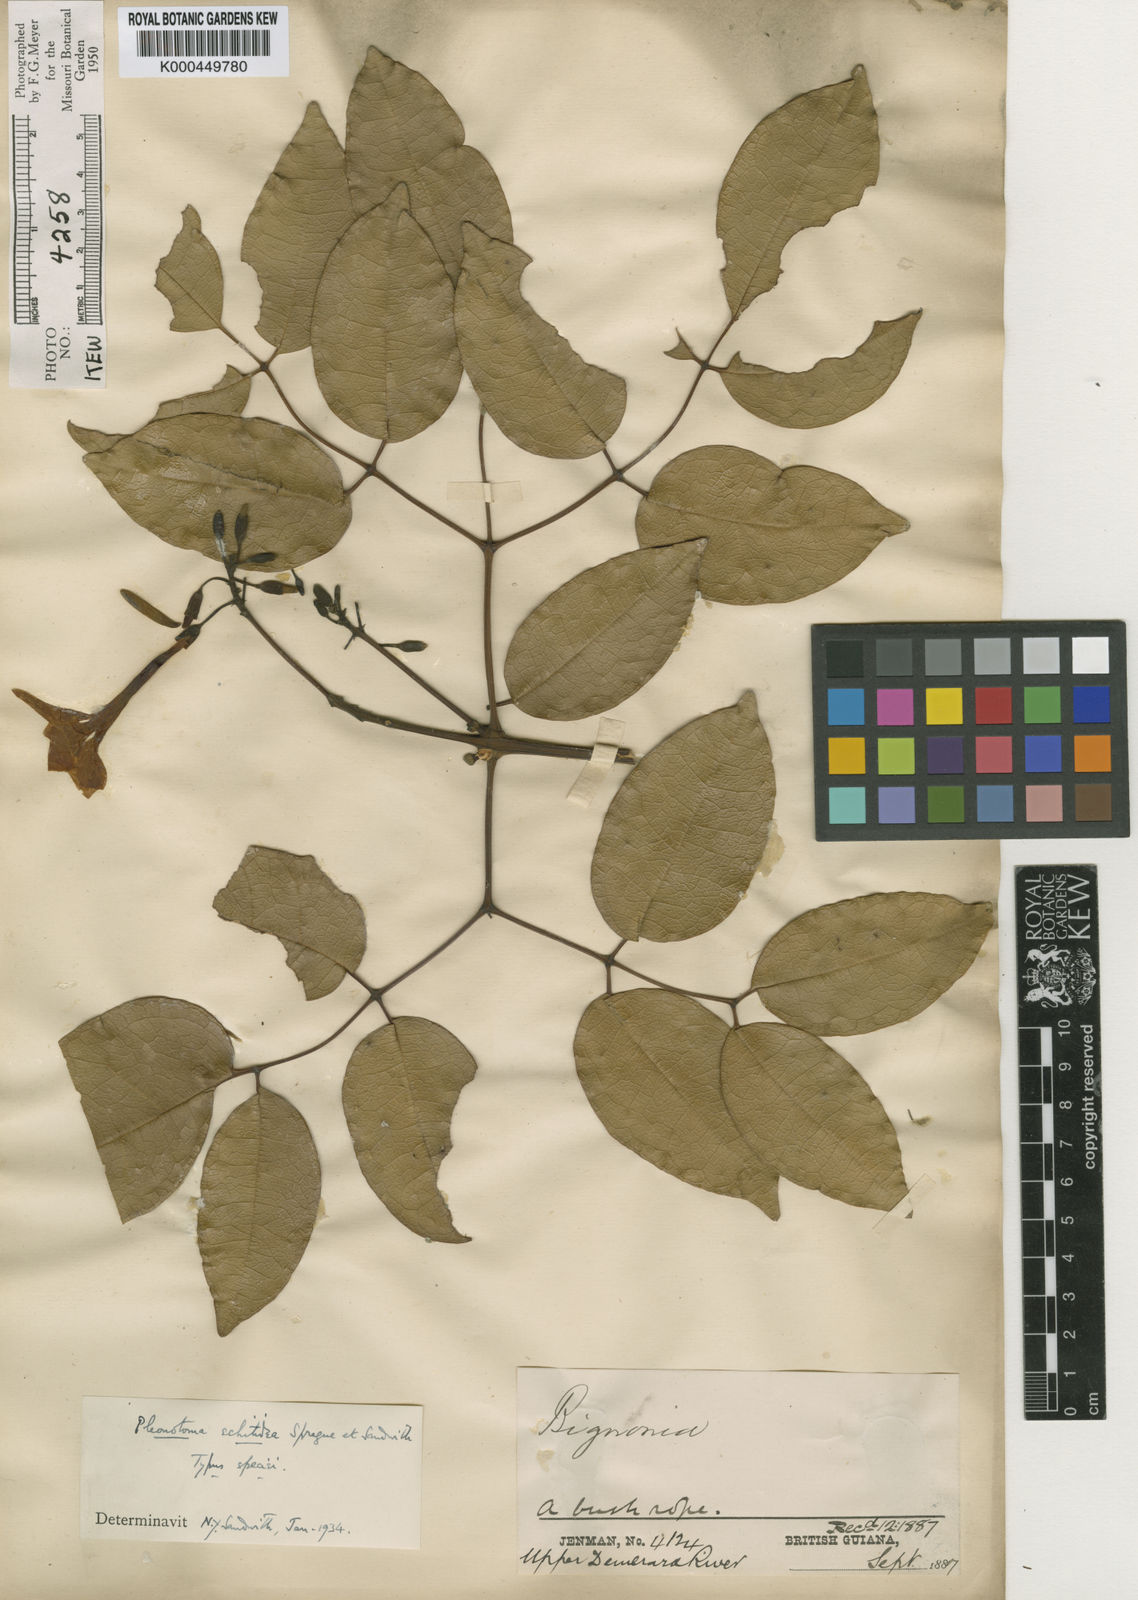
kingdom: Plantae
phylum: Tracheophyta
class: Magnoliopsida
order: Lamiales
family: Bignoniaceae
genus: Pleonotoma
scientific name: Pleonotoma echitidea
